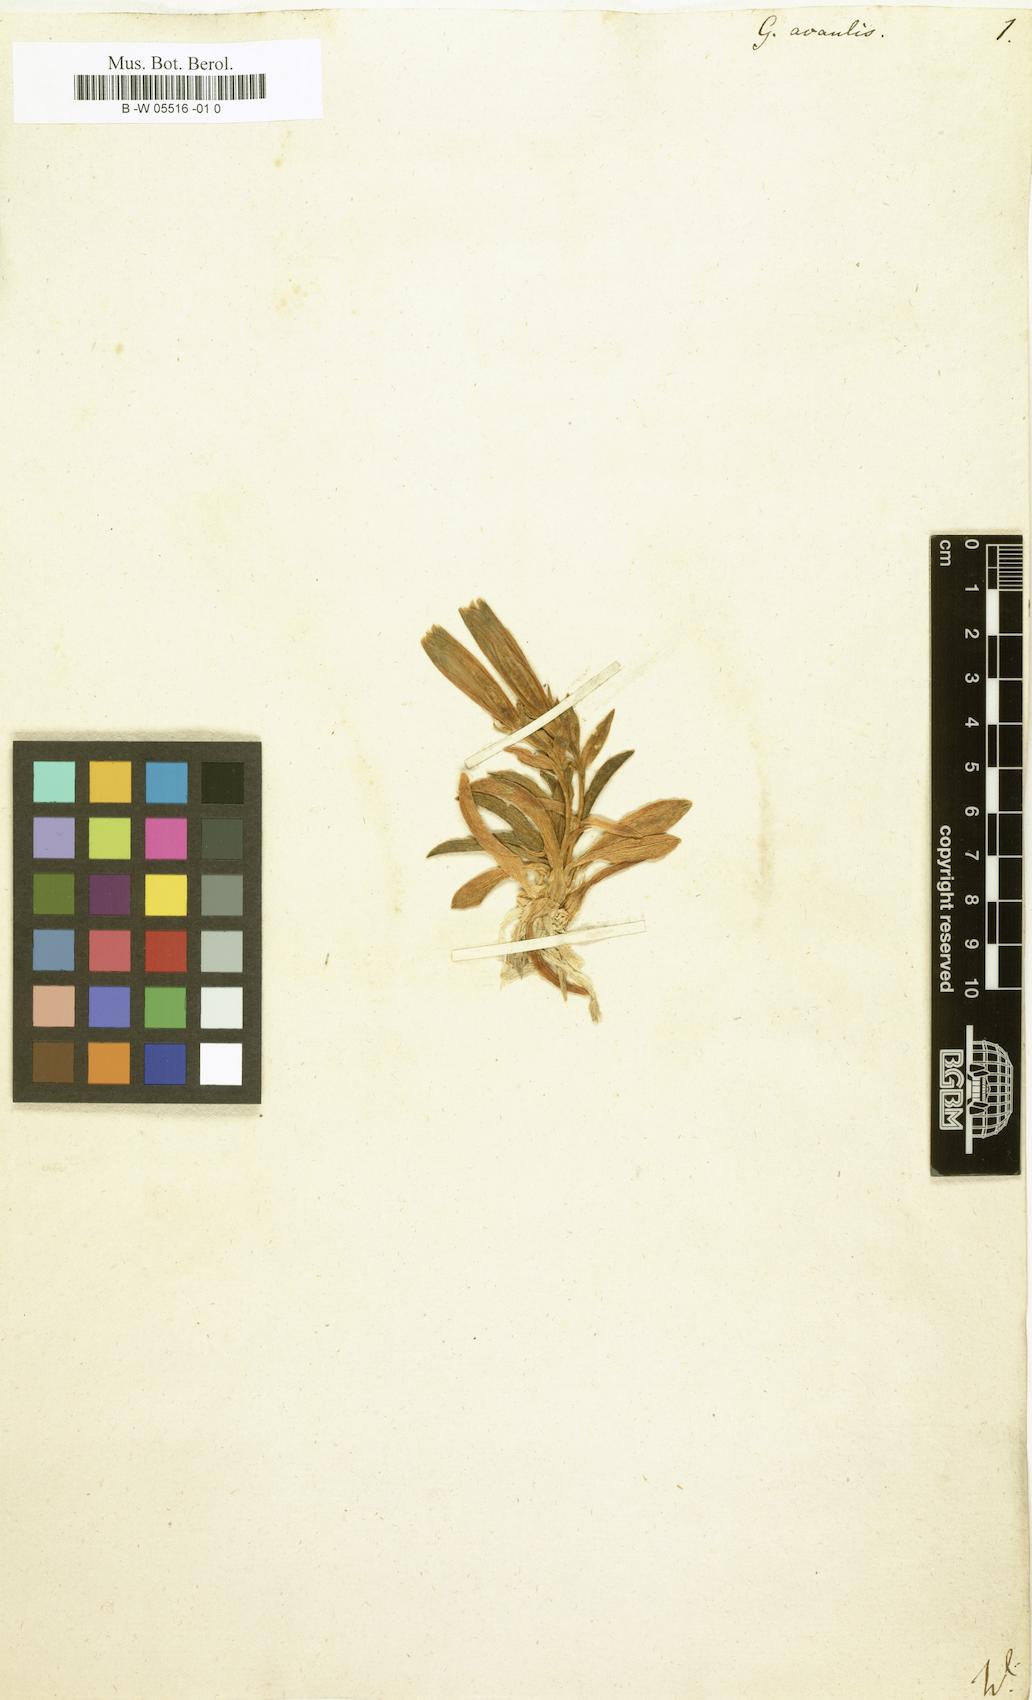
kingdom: Plantae
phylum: Tracheophyta
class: Magnoliopsida
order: Gentianales
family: Gentianaceae
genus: Gentiana
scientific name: Gentiana acaulis
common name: Trumpet gentian
